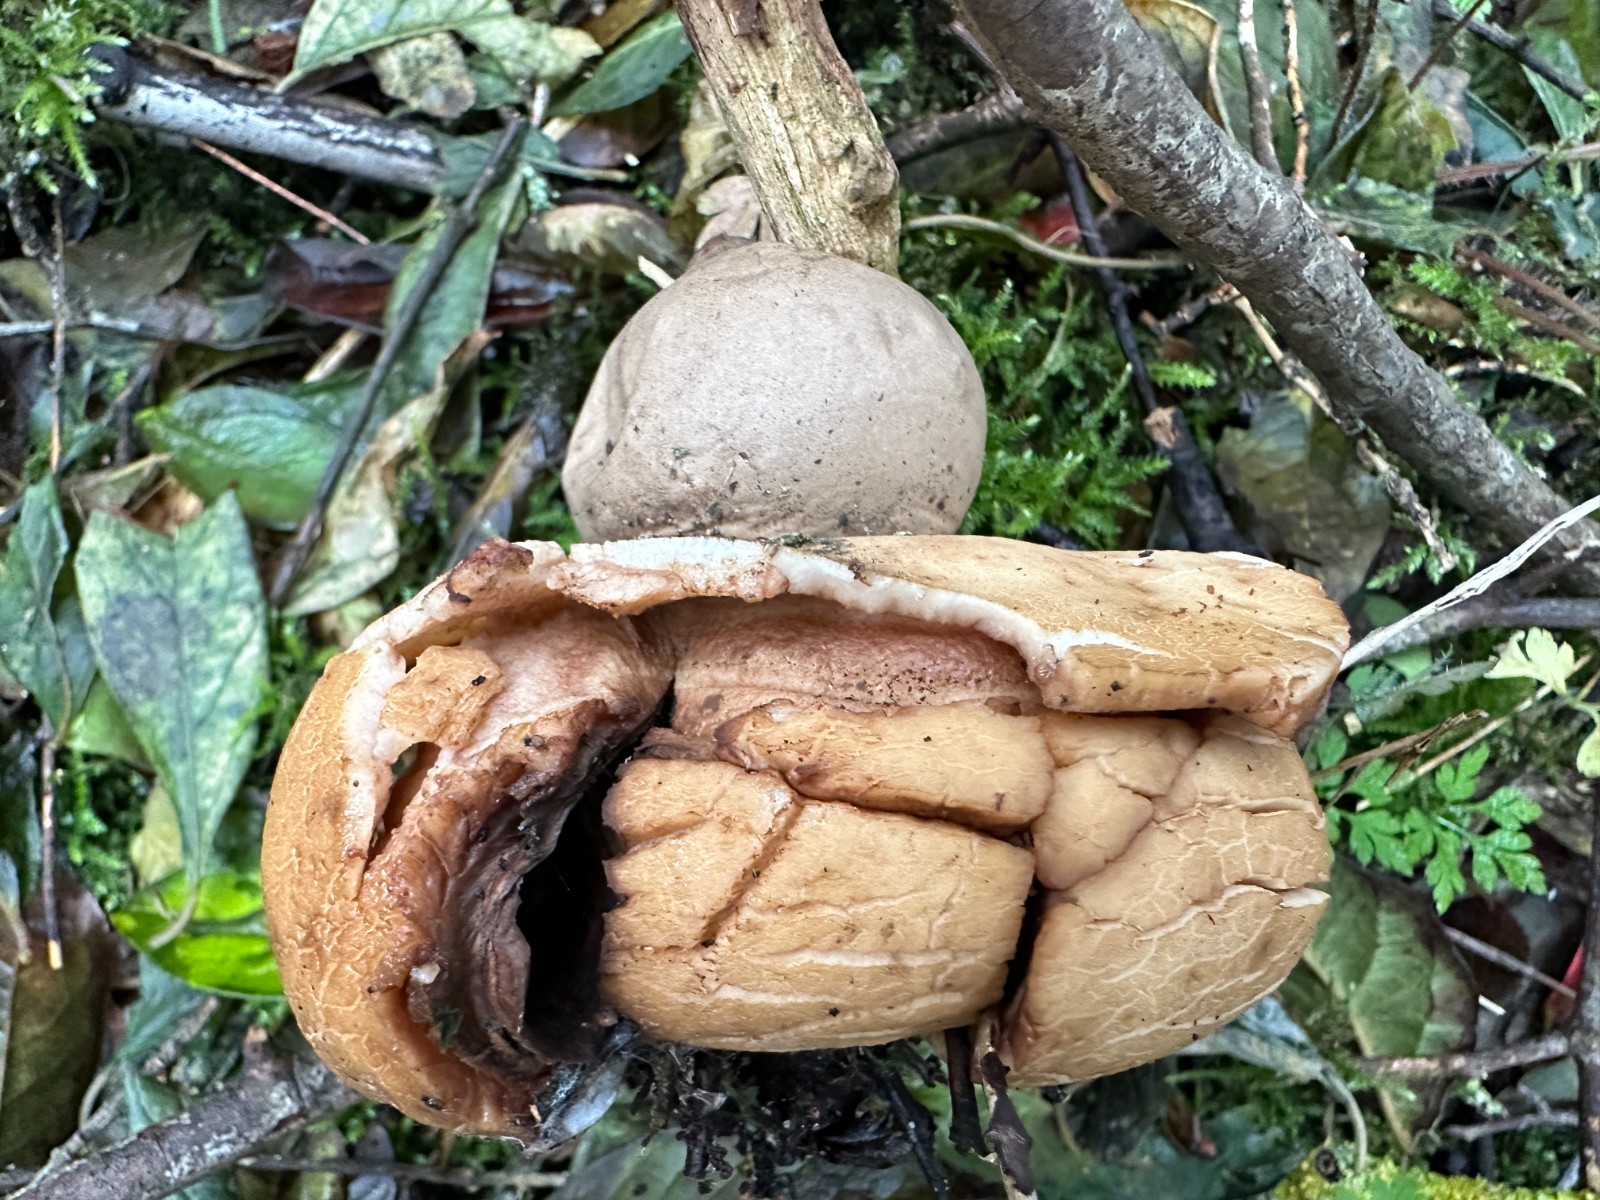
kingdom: Fungi
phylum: Basidiomycota
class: Agaricomycetes
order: Geastrales
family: Geastraceae
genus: Geastrum
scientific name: Geastrum michelianum
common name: kødet stjernebold
